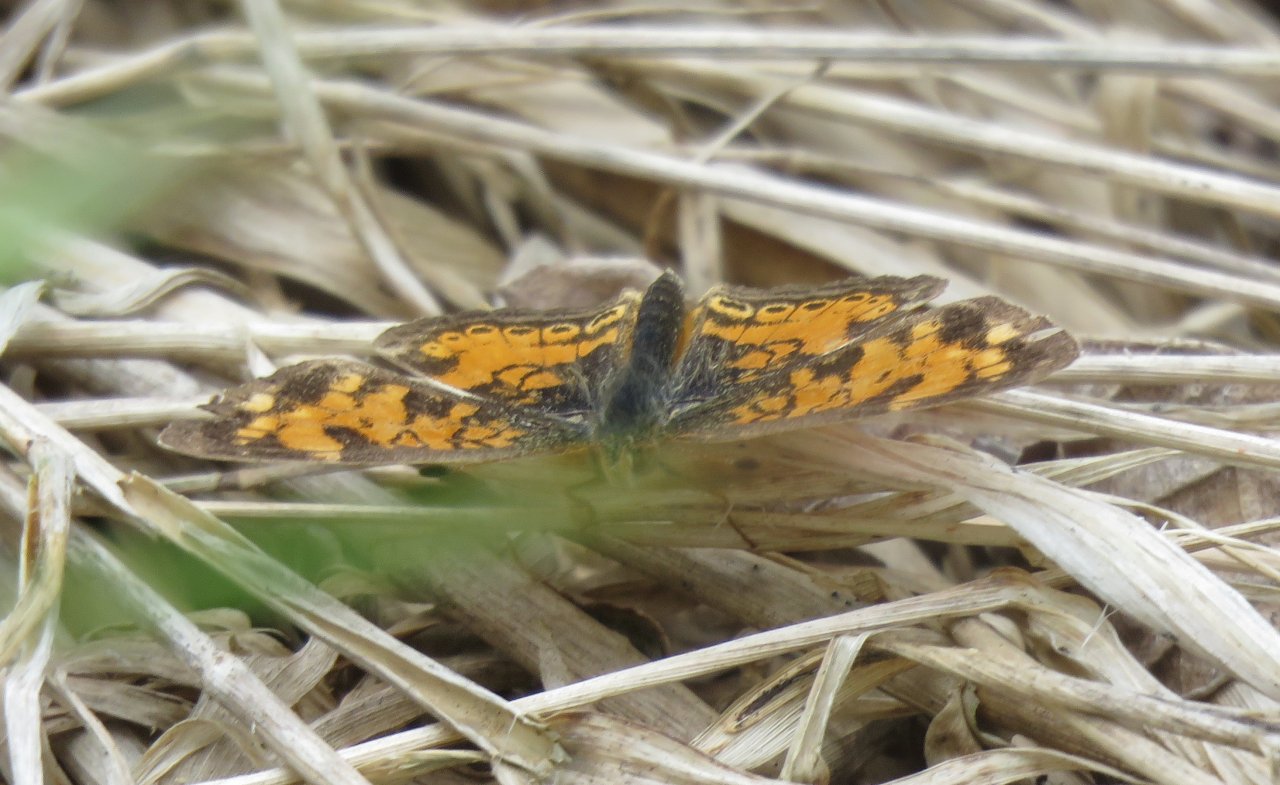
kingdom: Animalia
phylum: Arthropoda
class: Insecta
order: Lepidoptera
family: Nymphalidae
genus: Phyciodes
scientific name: Phyciodes tharos
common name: Pearl Crescent
